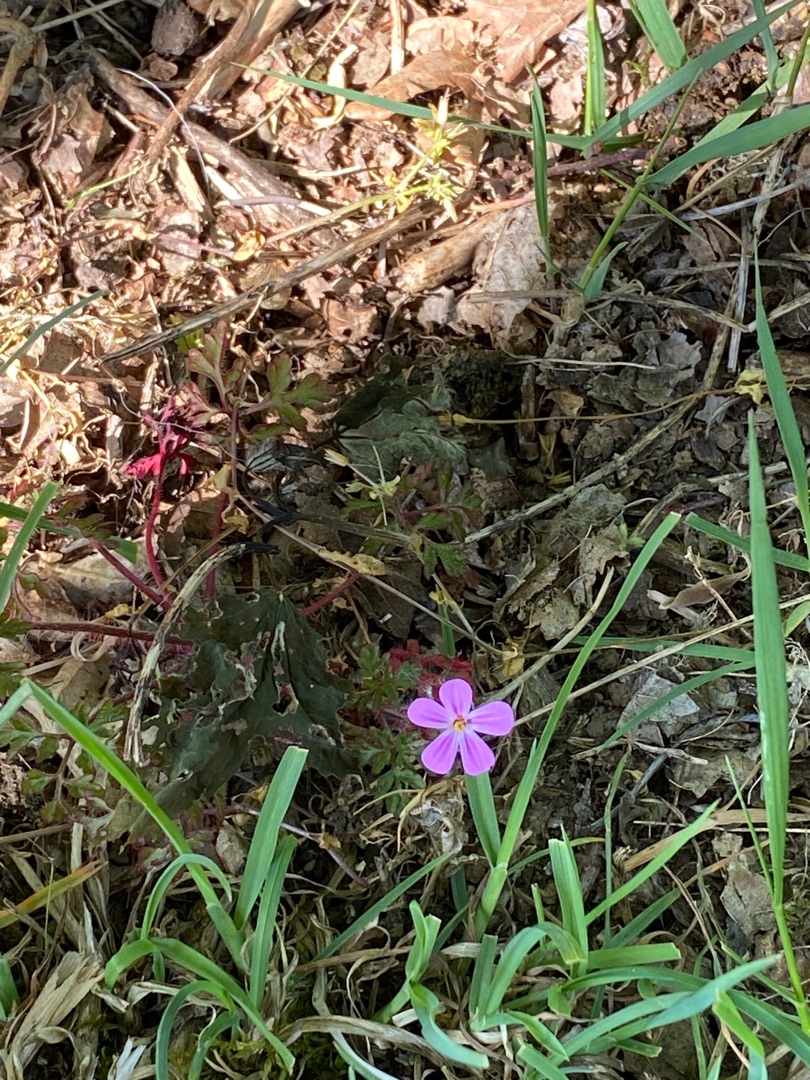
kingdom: Plantae
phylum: Tracheophyta
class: Magnoliopsida
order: Geraniales
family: Geraniaceae
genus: Geranium
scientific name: Geranium robertianum
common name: Stinkende storkenæb
